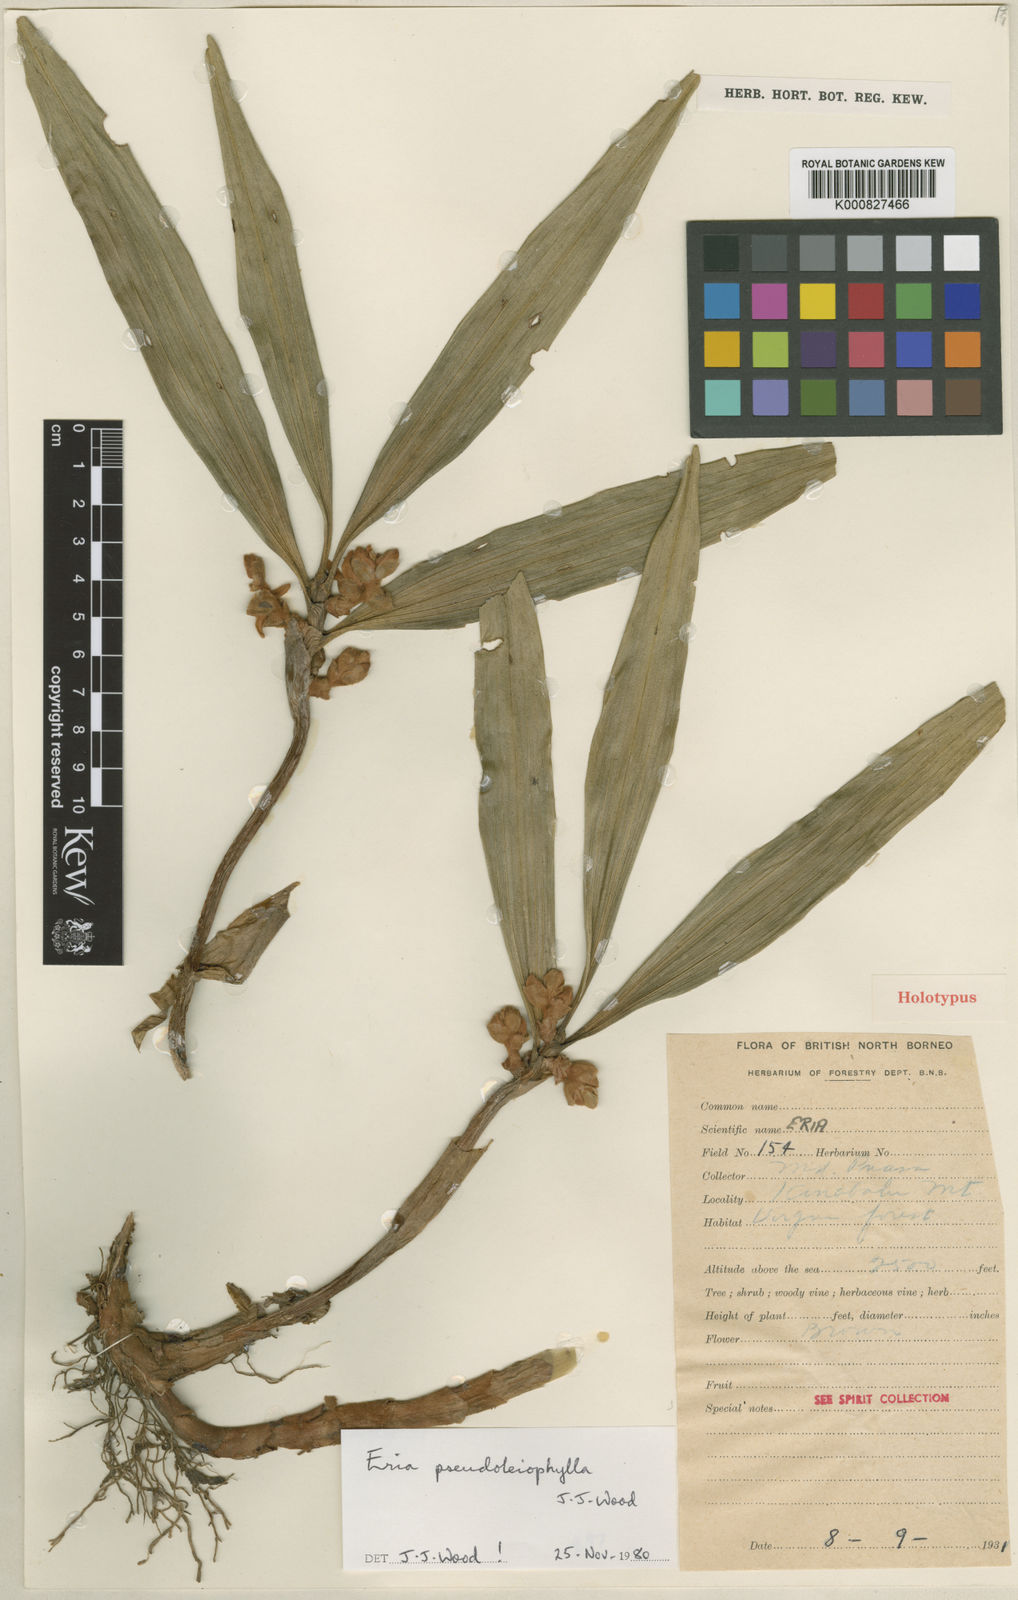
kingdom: Plantae
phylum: Tracheophyta
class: Liliopsida
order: Asparagales
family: Orchidaceae
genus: Strongyleria
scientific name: Strongyleria hirsutipetala
